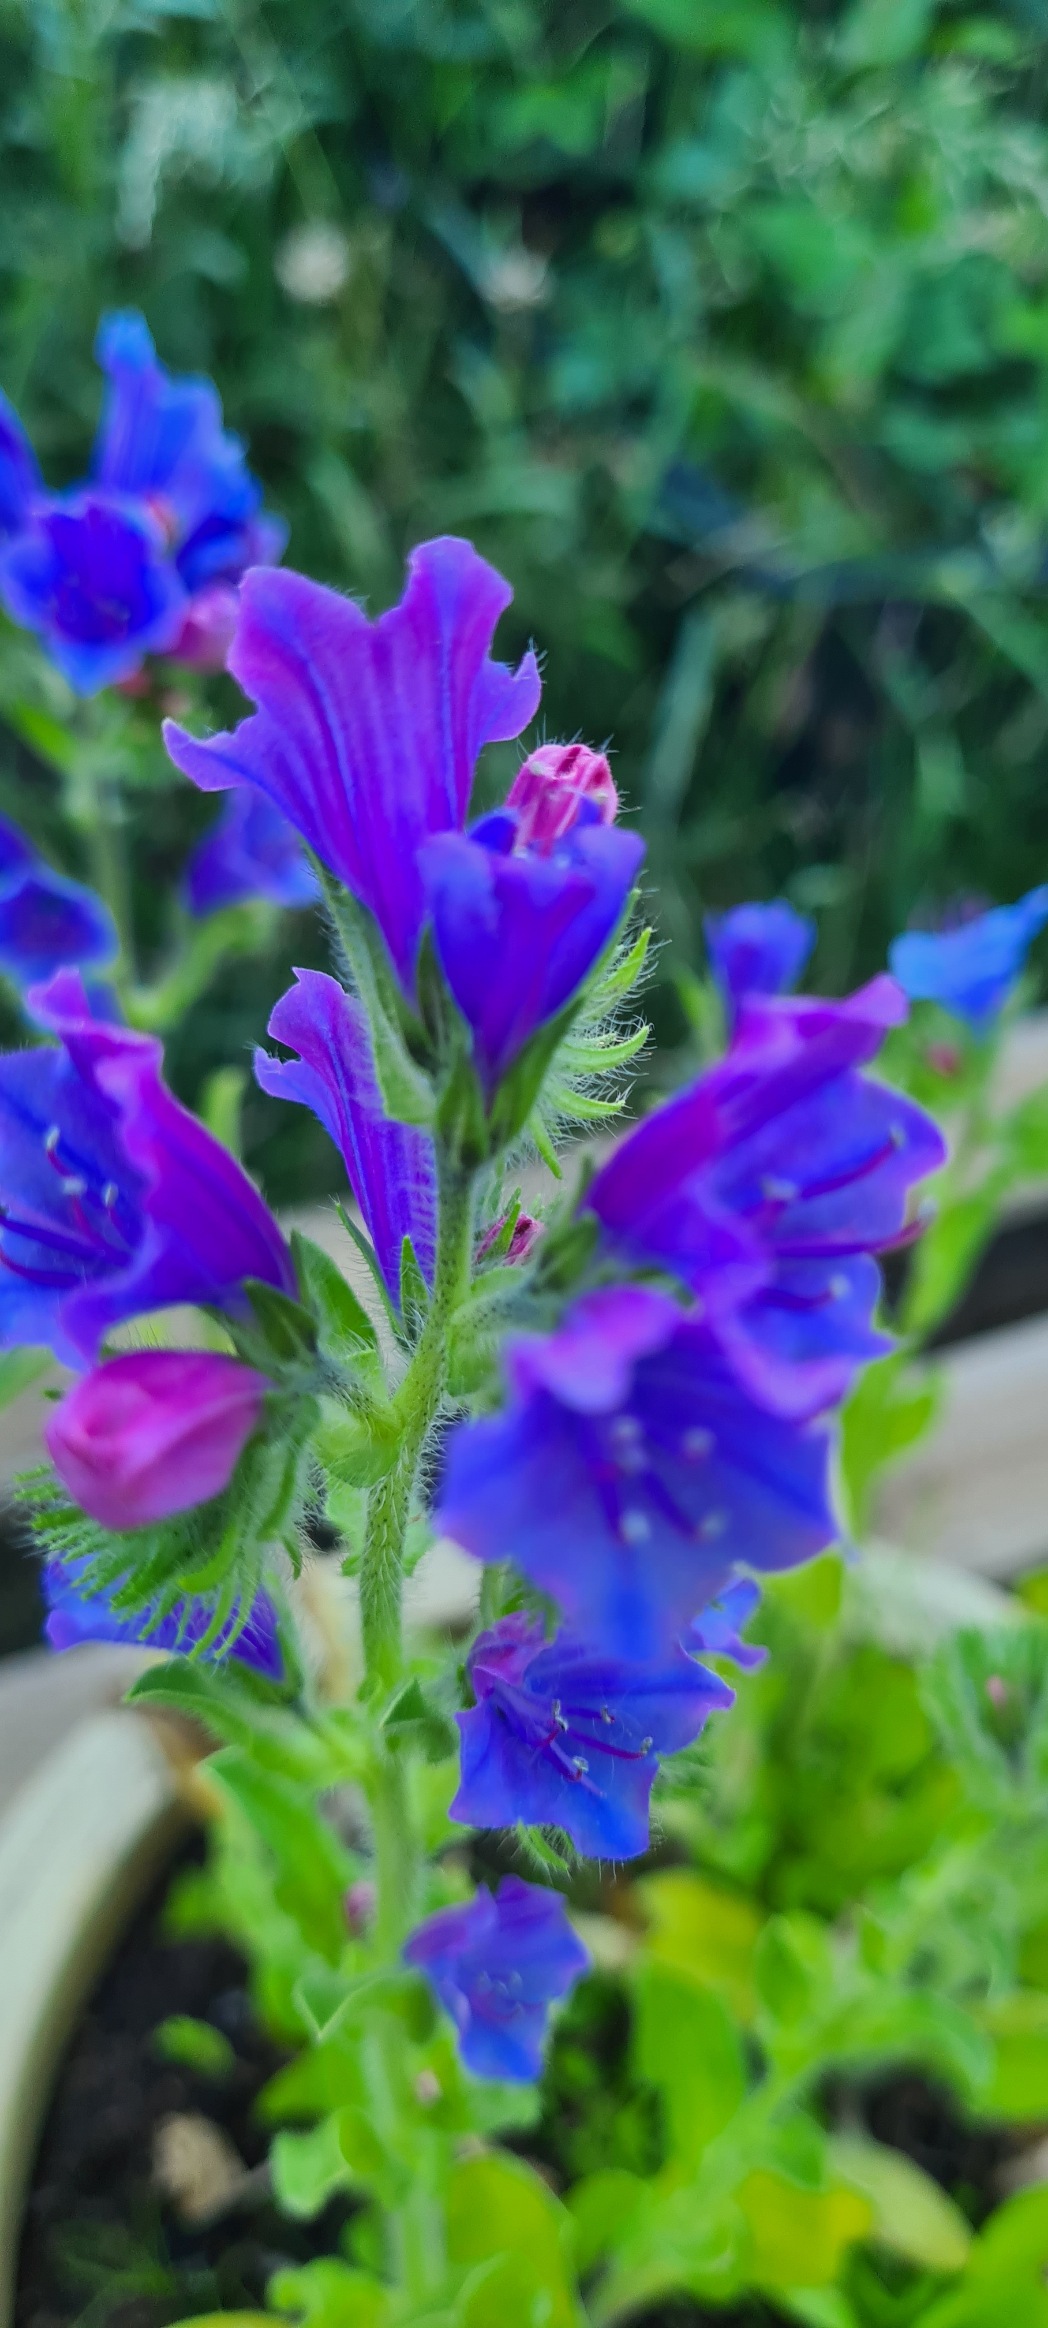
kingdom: Plantae
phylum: Tracheophyta
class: Magnoliopsida
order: Boraginales
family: Boraginaceae
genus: Echium
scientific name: Echium plantagineum
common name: Vejbred-slangehoved
